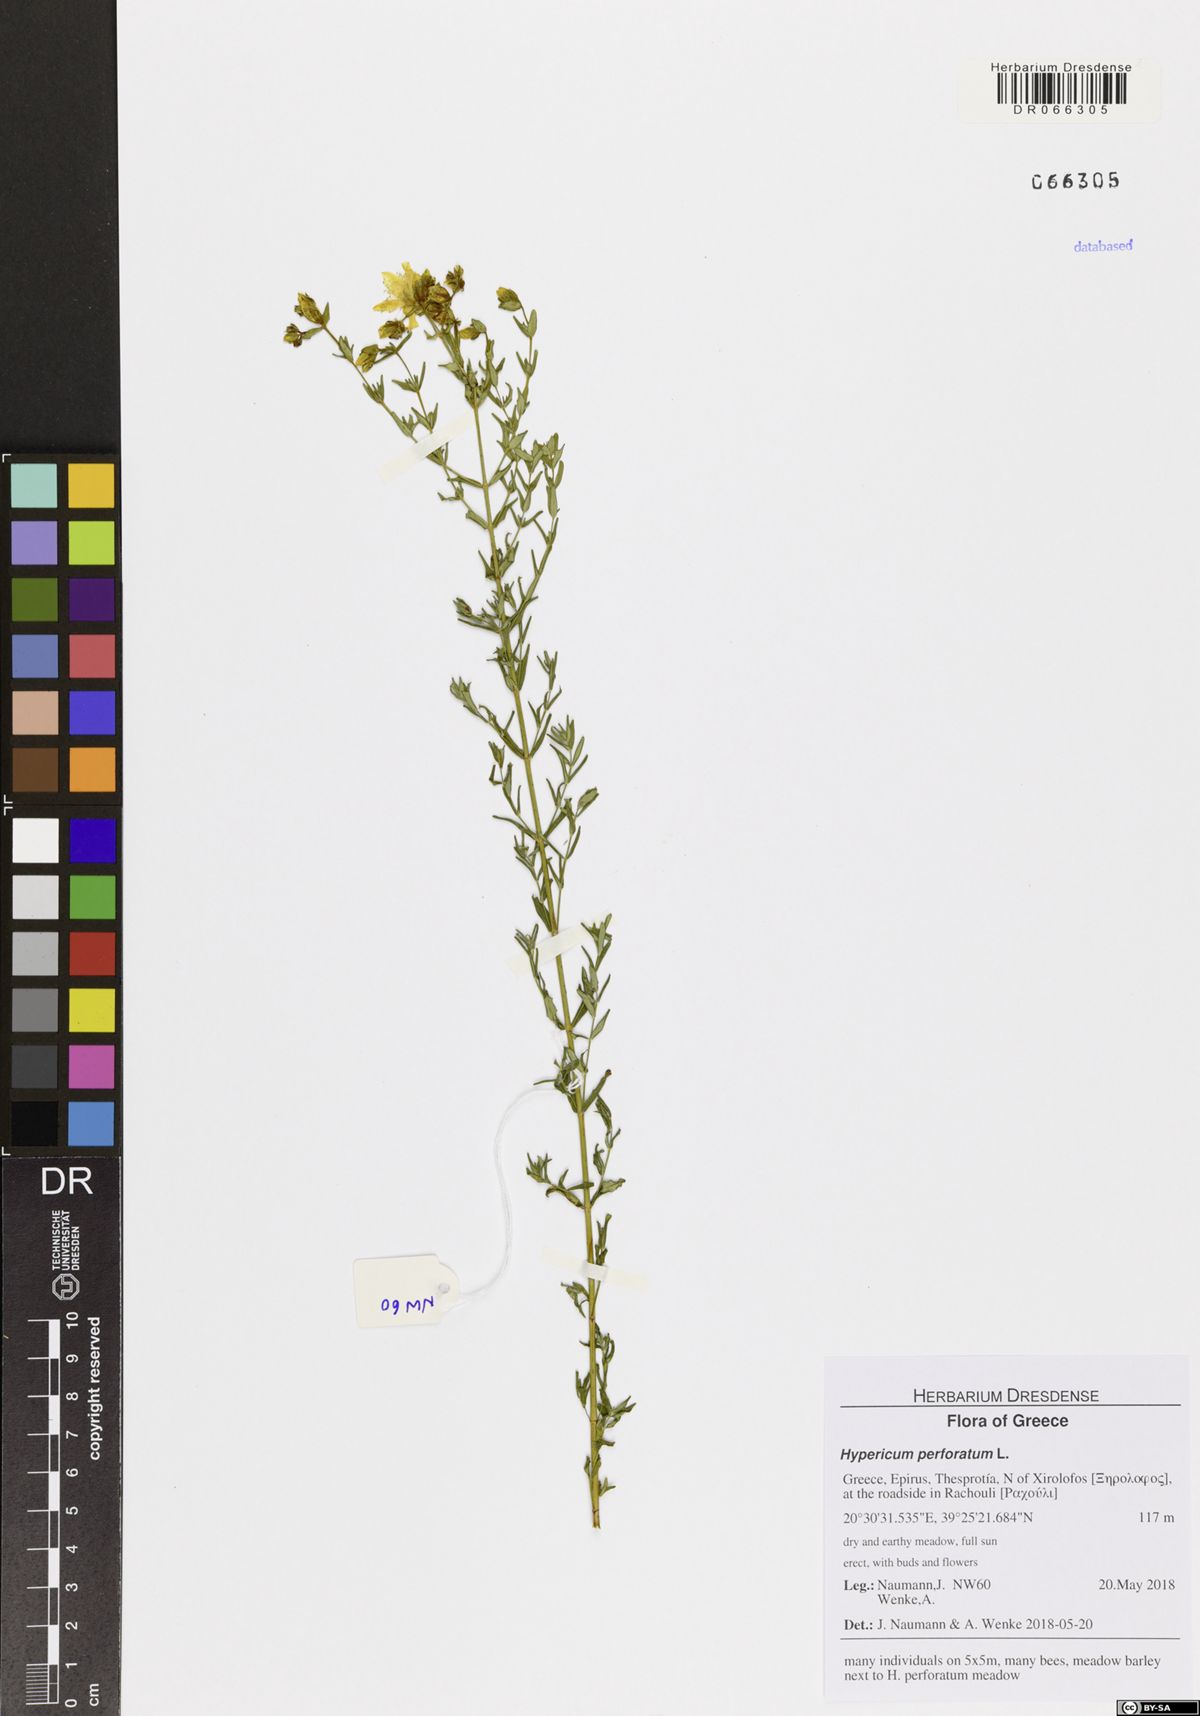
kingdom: Plantae
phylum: Tracheophyta
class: Magnoliopsida
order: Malpighiales
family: Hypericaceae
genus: Hypericum
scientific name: Hypericum perforatum
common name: Common st. johnswort
